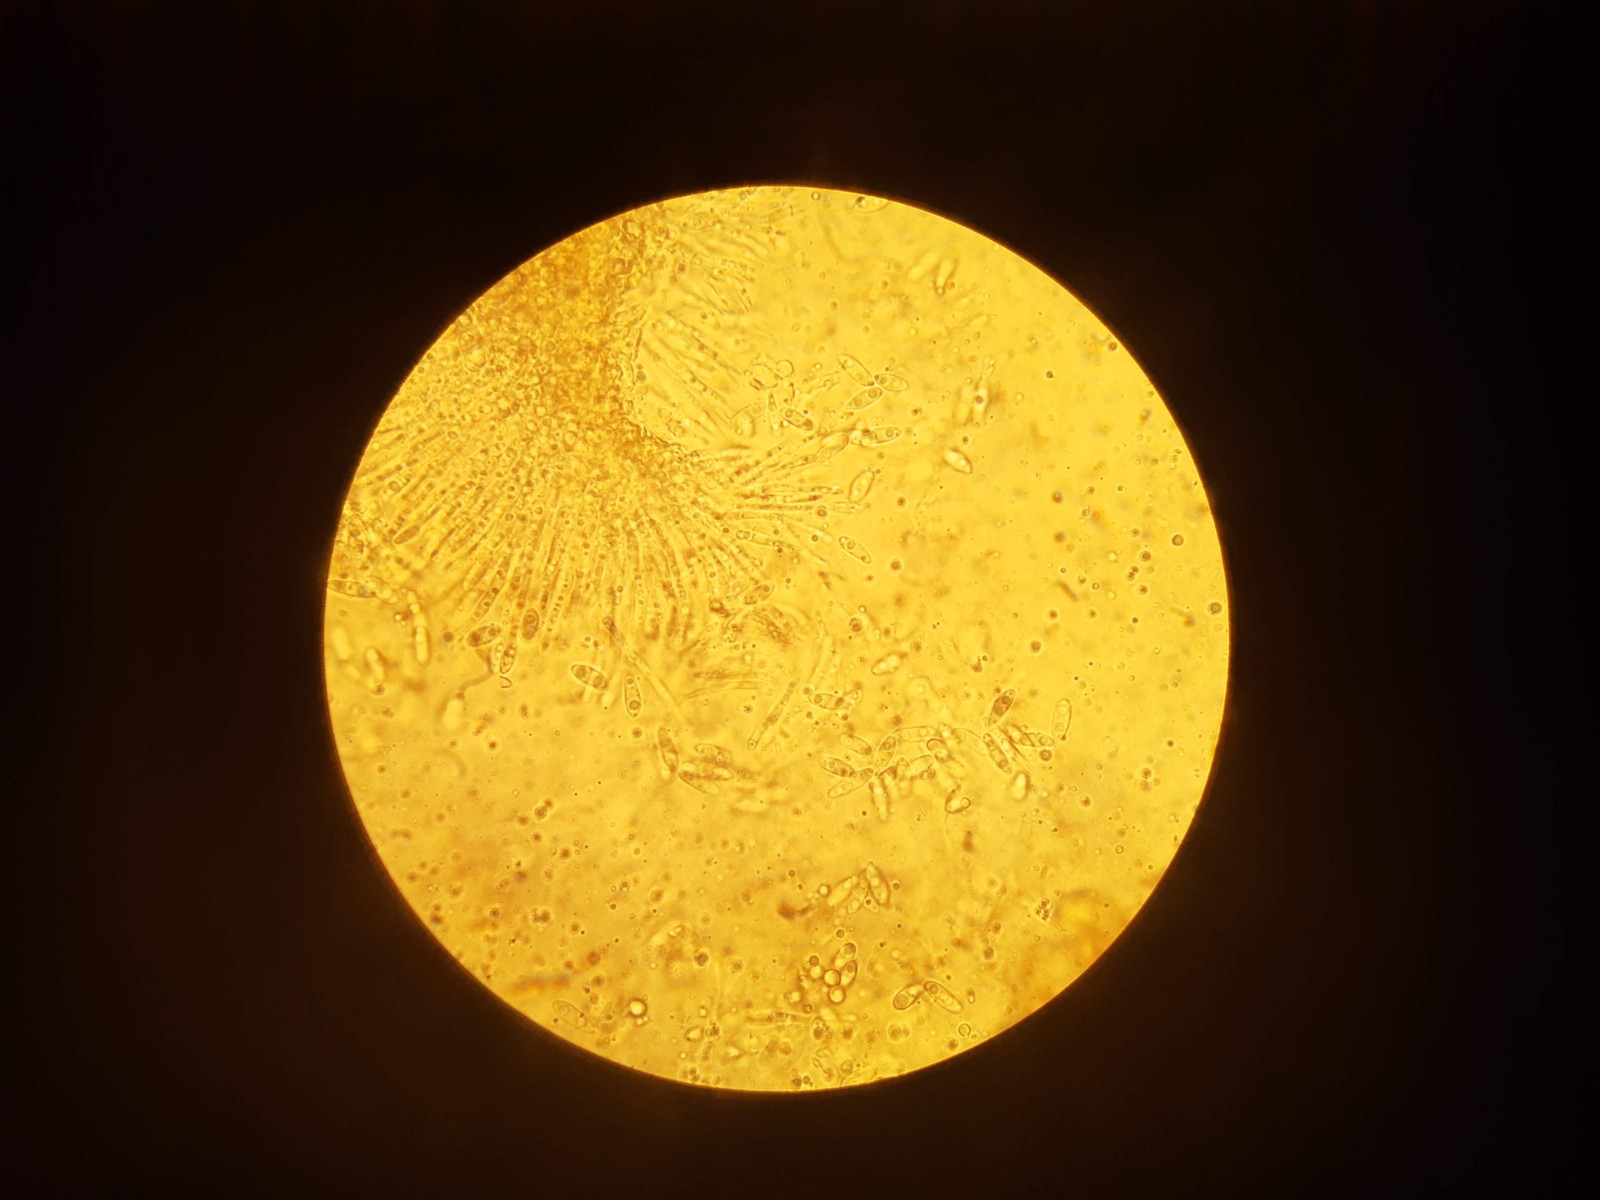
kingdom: Fungi
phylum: Ascomycota
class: Sordariomycetes
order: Diaporthales
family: Diaporthaceae
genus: Diaporthe
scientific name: Diaporthe crustosa
